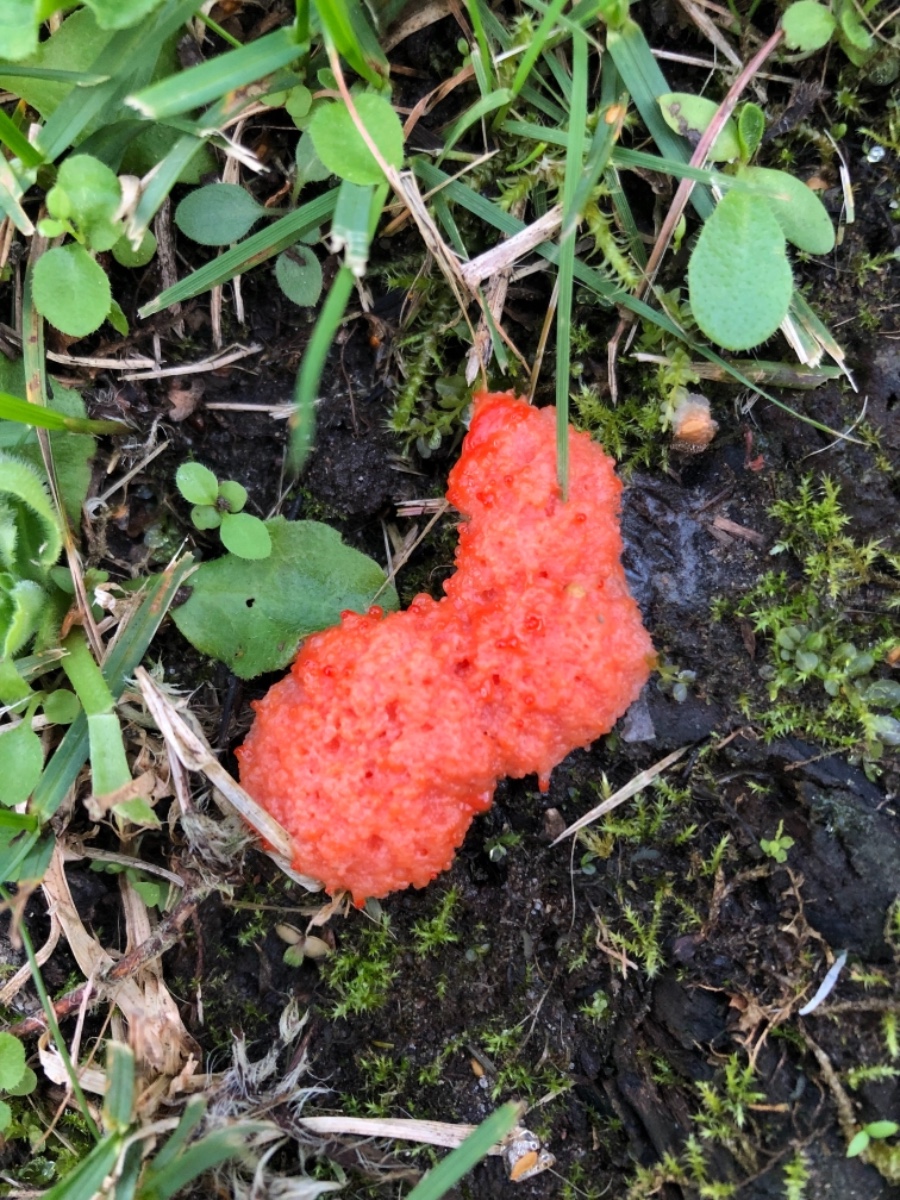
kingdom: Protozoa
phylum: Mycetozoa
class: Myxomycetes
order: Cribrariales
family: Tubiferaceae
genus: Tubifera
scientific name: Tubifera ferruginosa
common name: kanel-støvrør
